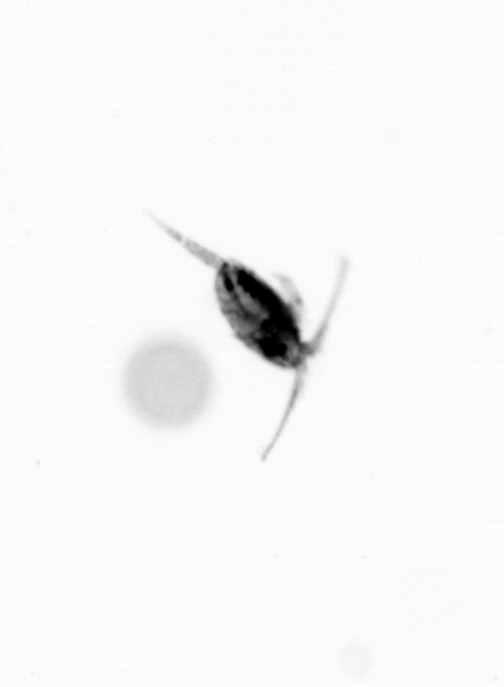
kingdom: Animalia
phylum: Arthropoda
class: Copepoda
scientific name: Copepoda
